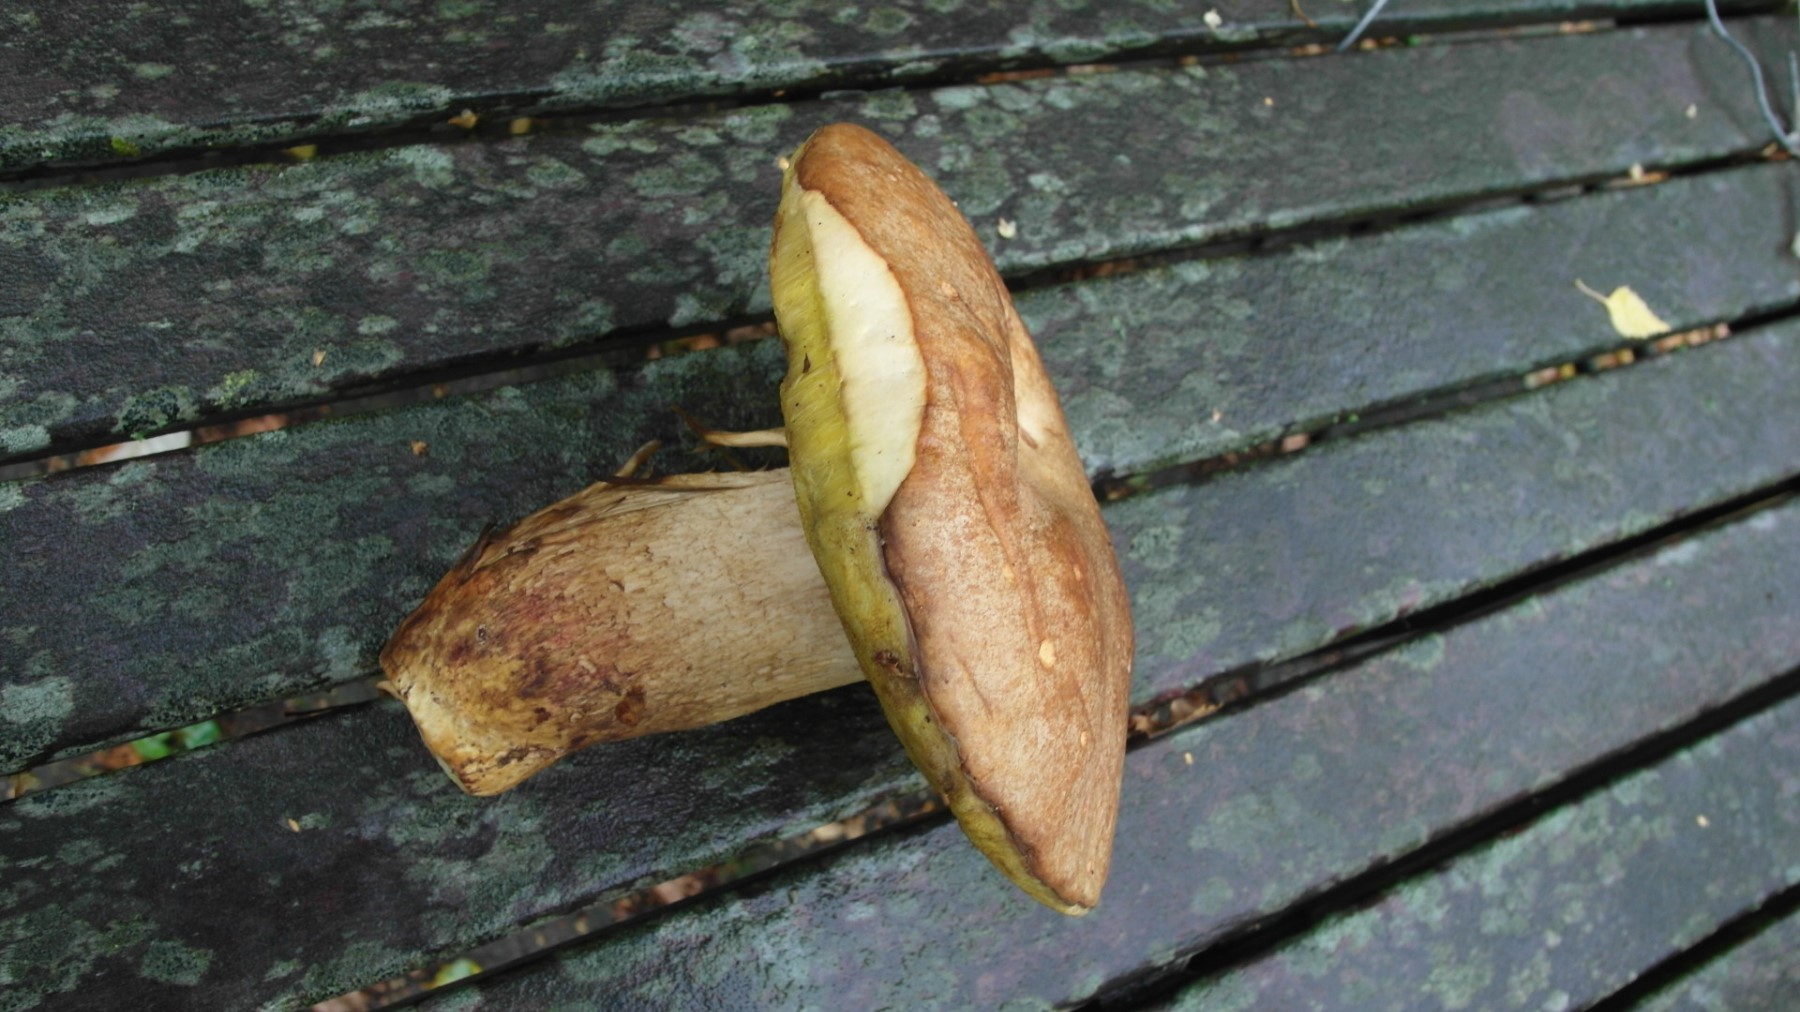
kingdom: Fungi
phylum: Basidiomycota
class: Agaricomycetes
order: Boletales
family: Boletaceae
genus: Hemileccinum
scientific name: Hemileccinum impolitum
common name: bleg rørhat
